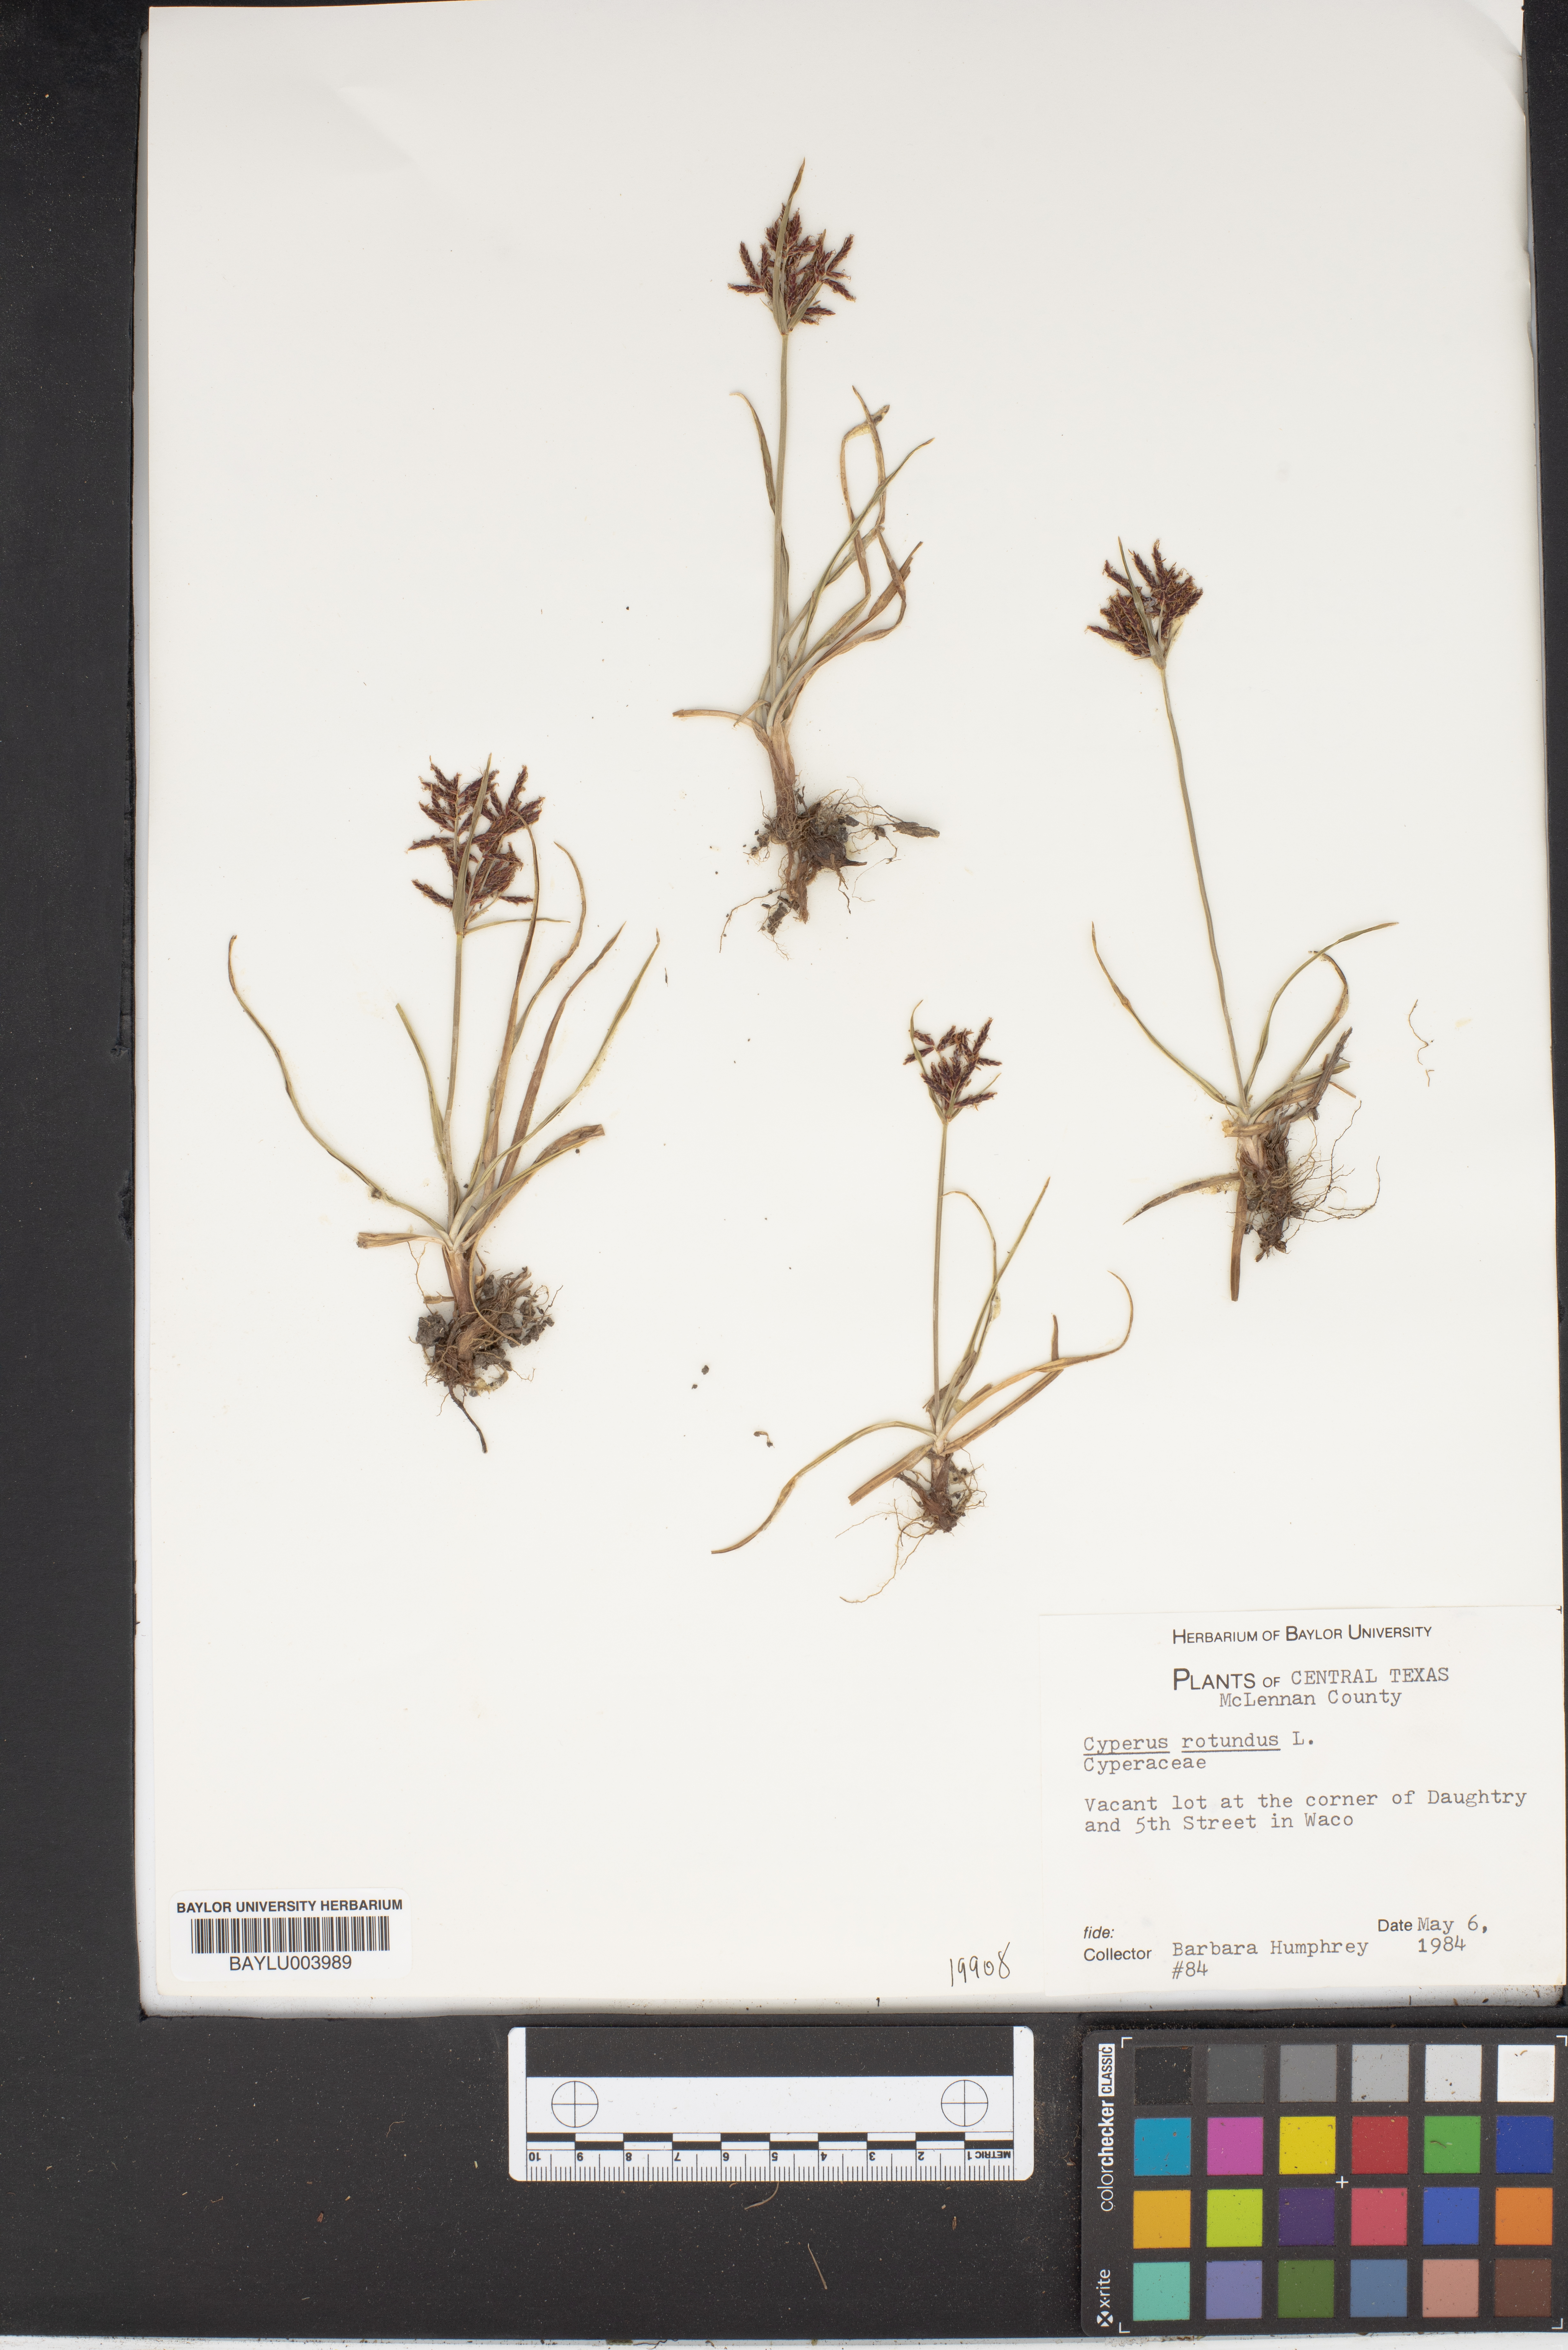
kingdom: Plantae
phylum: Tracheophyta
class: Liliopsida
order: Poales
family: Cyperaceae
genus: Cyperus
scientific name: Cyperus rotundus
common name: Nutgrass
